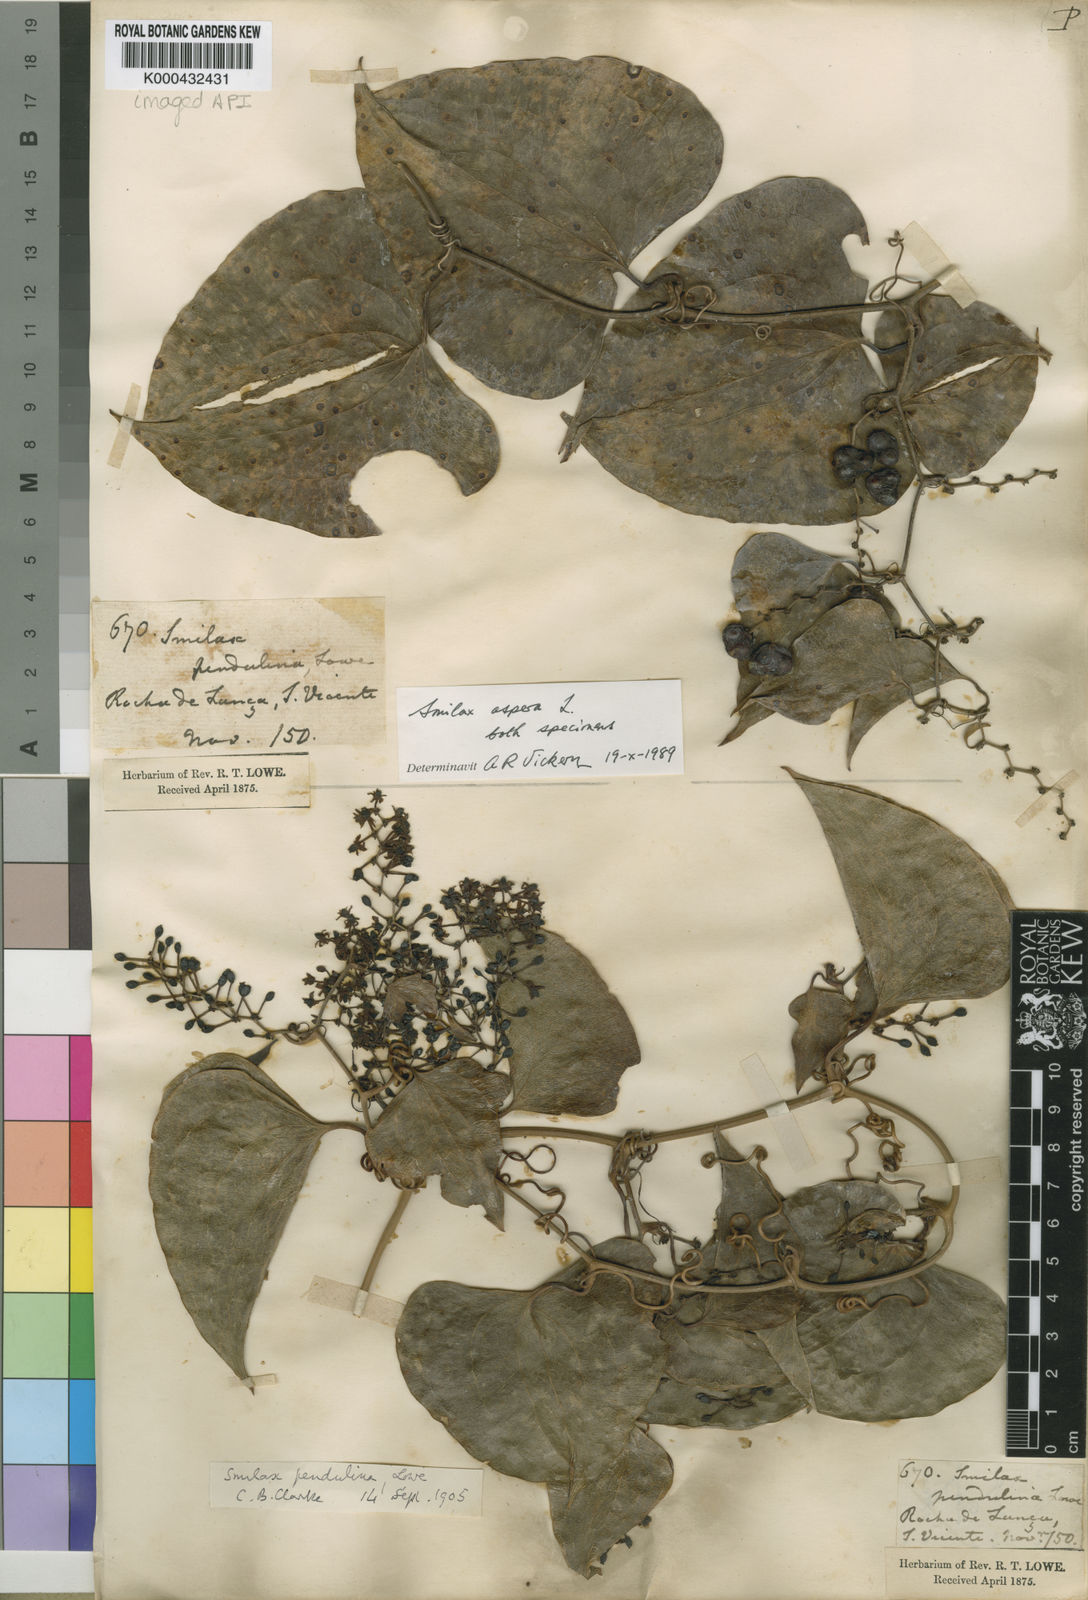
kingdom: Plantae
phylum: Tracheophyta
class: Liliopsida
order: Liliales
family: Smilacaceae
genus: Smilax
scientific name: Smilax aspera
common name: Common smilax
